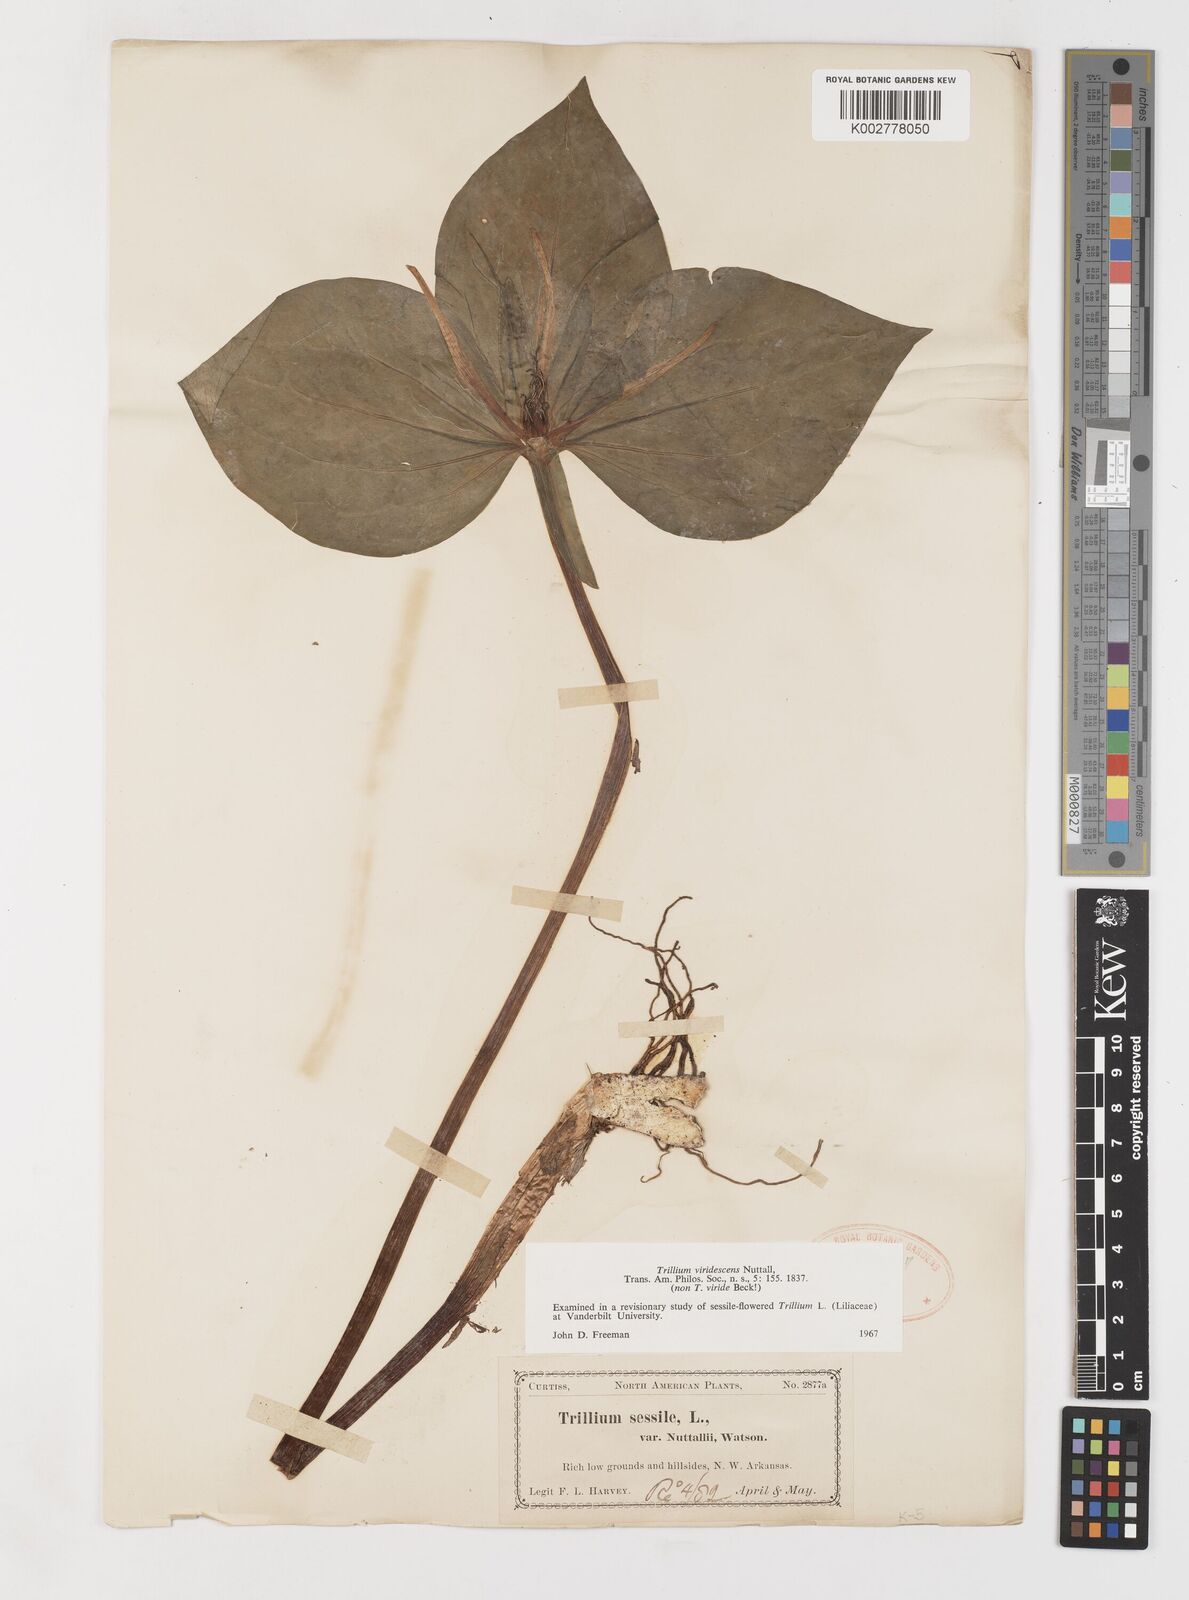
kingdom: Plantae
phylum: Tracheophyta
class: Liliopsida
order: Liliales
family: Melanthiaceae
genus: Trillium
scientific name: Trillium viridescens
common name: Ozark green trillium
